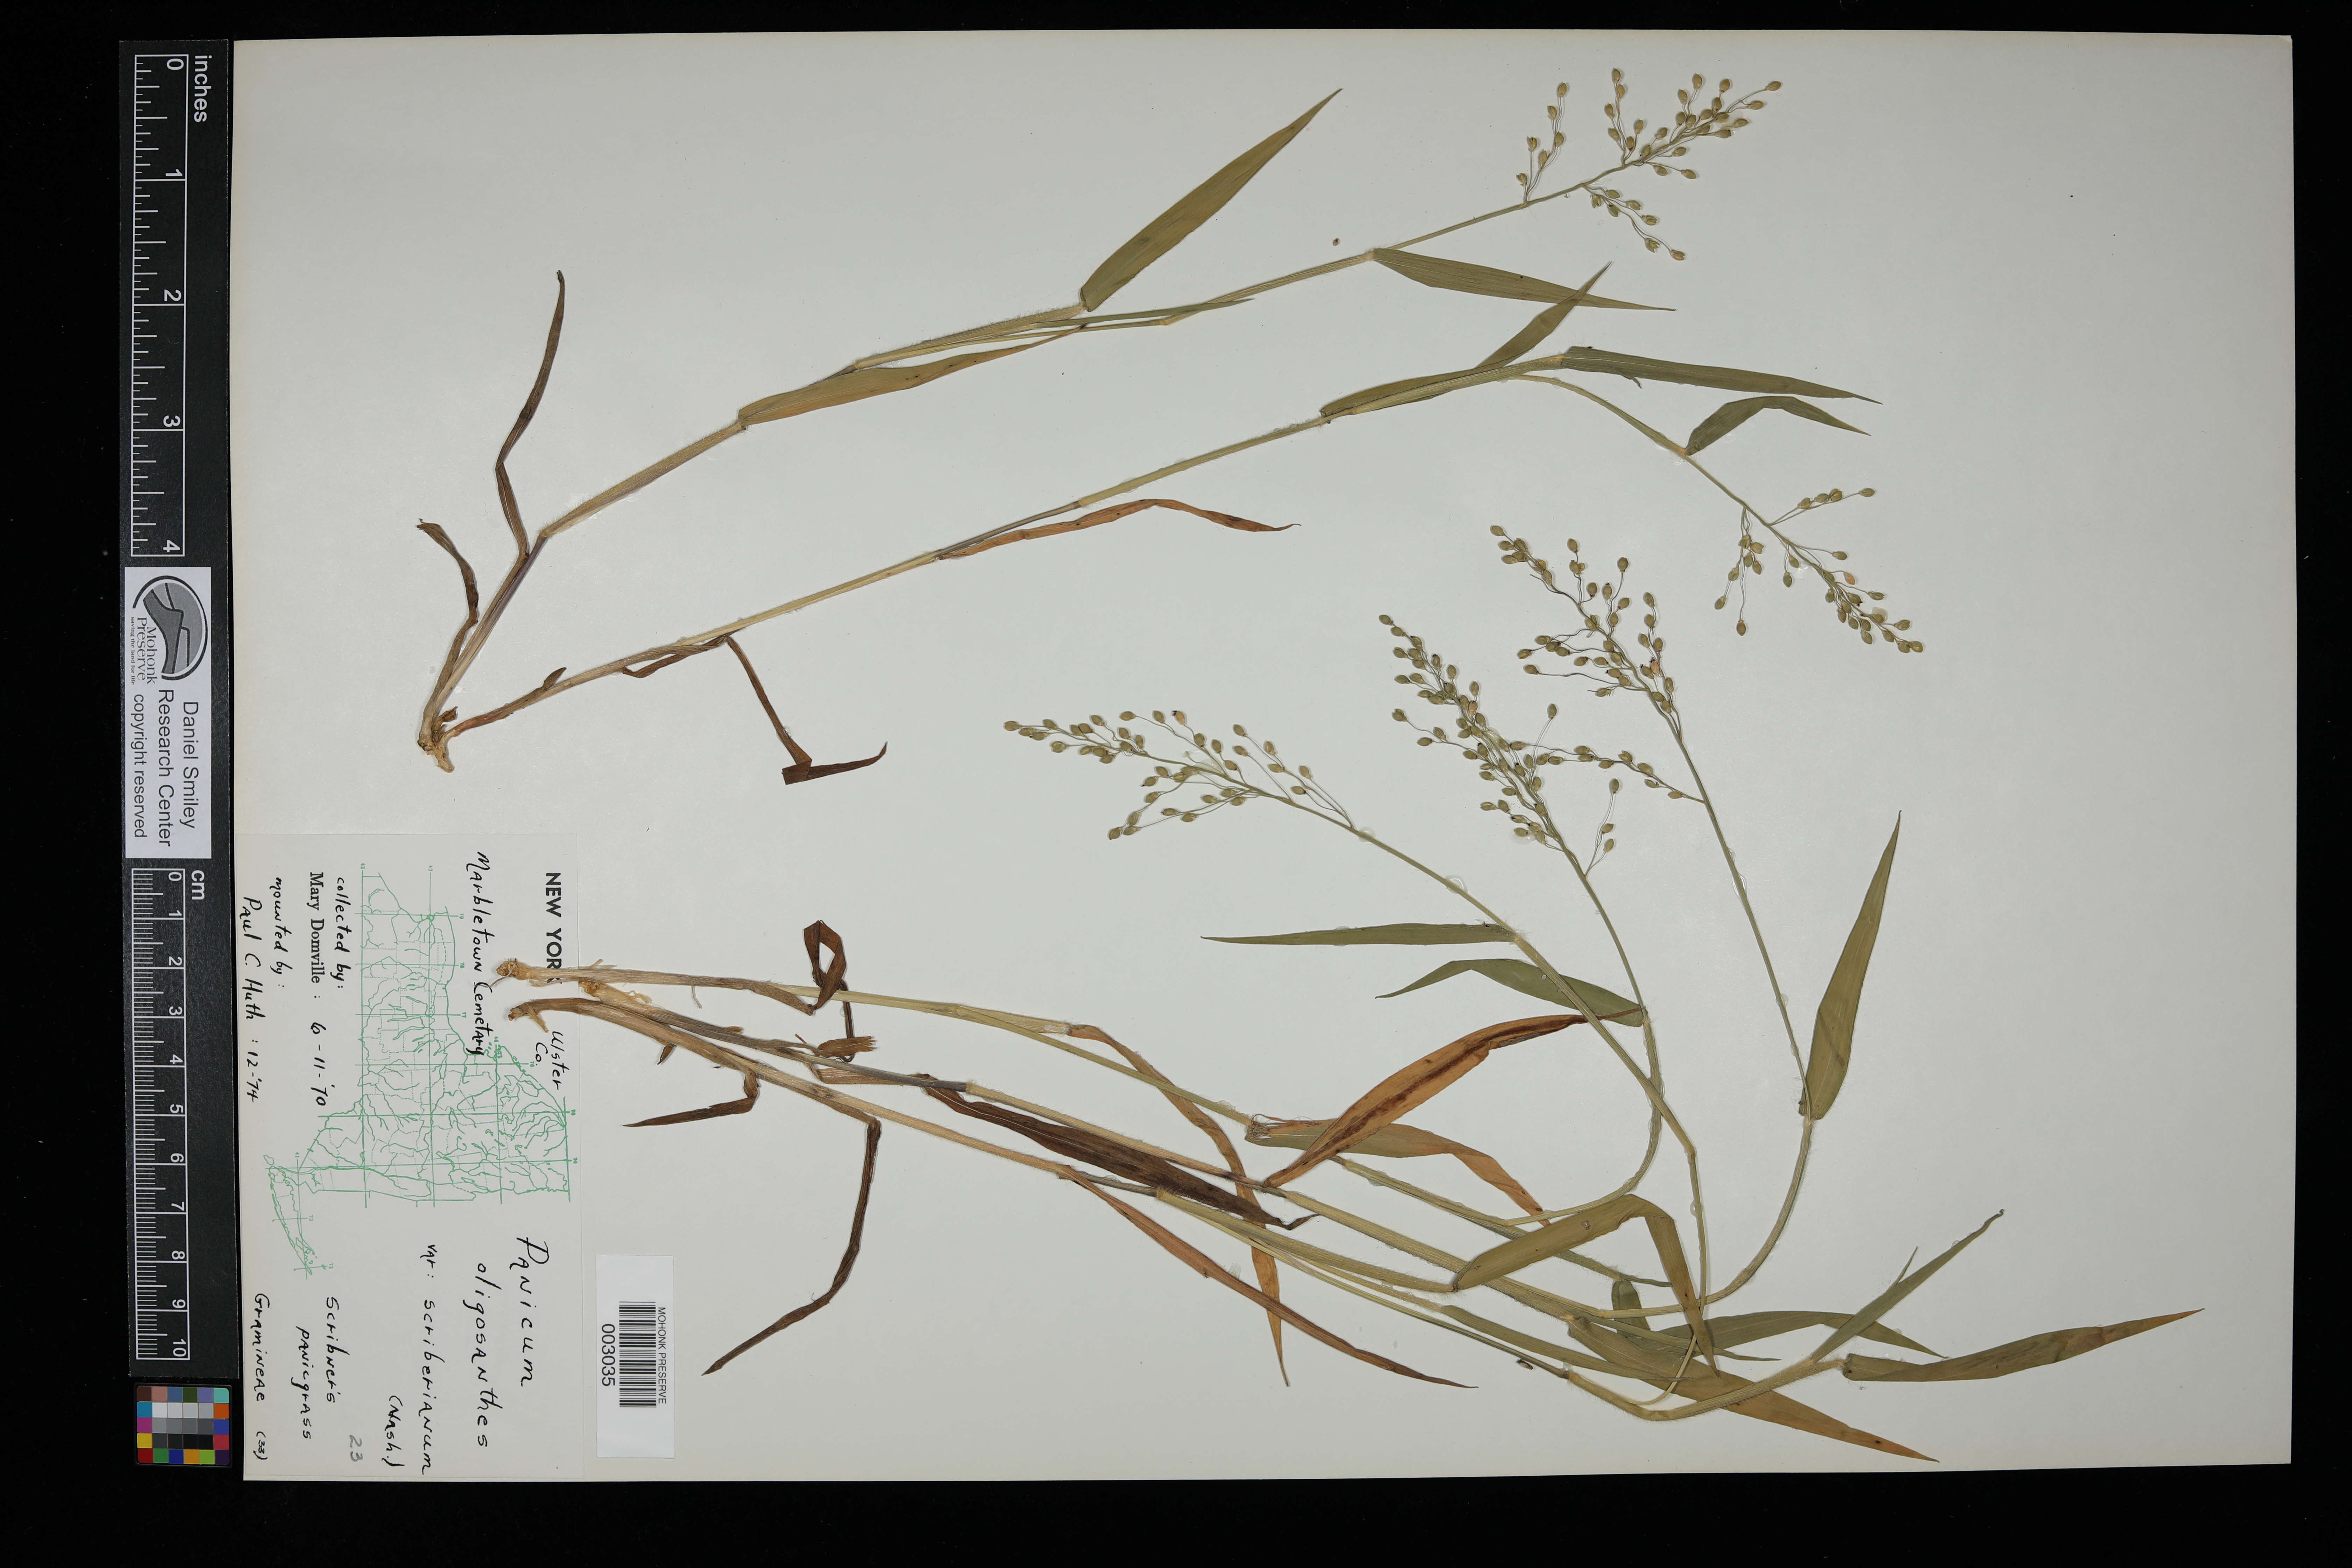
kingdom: Plantae
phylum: Tracheophyta
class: Liliopsida
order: Poales
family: Poaceae
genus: Dichanthelium
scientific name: Dichanthelium oligosanthes
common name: Few-anther obscuregrass
